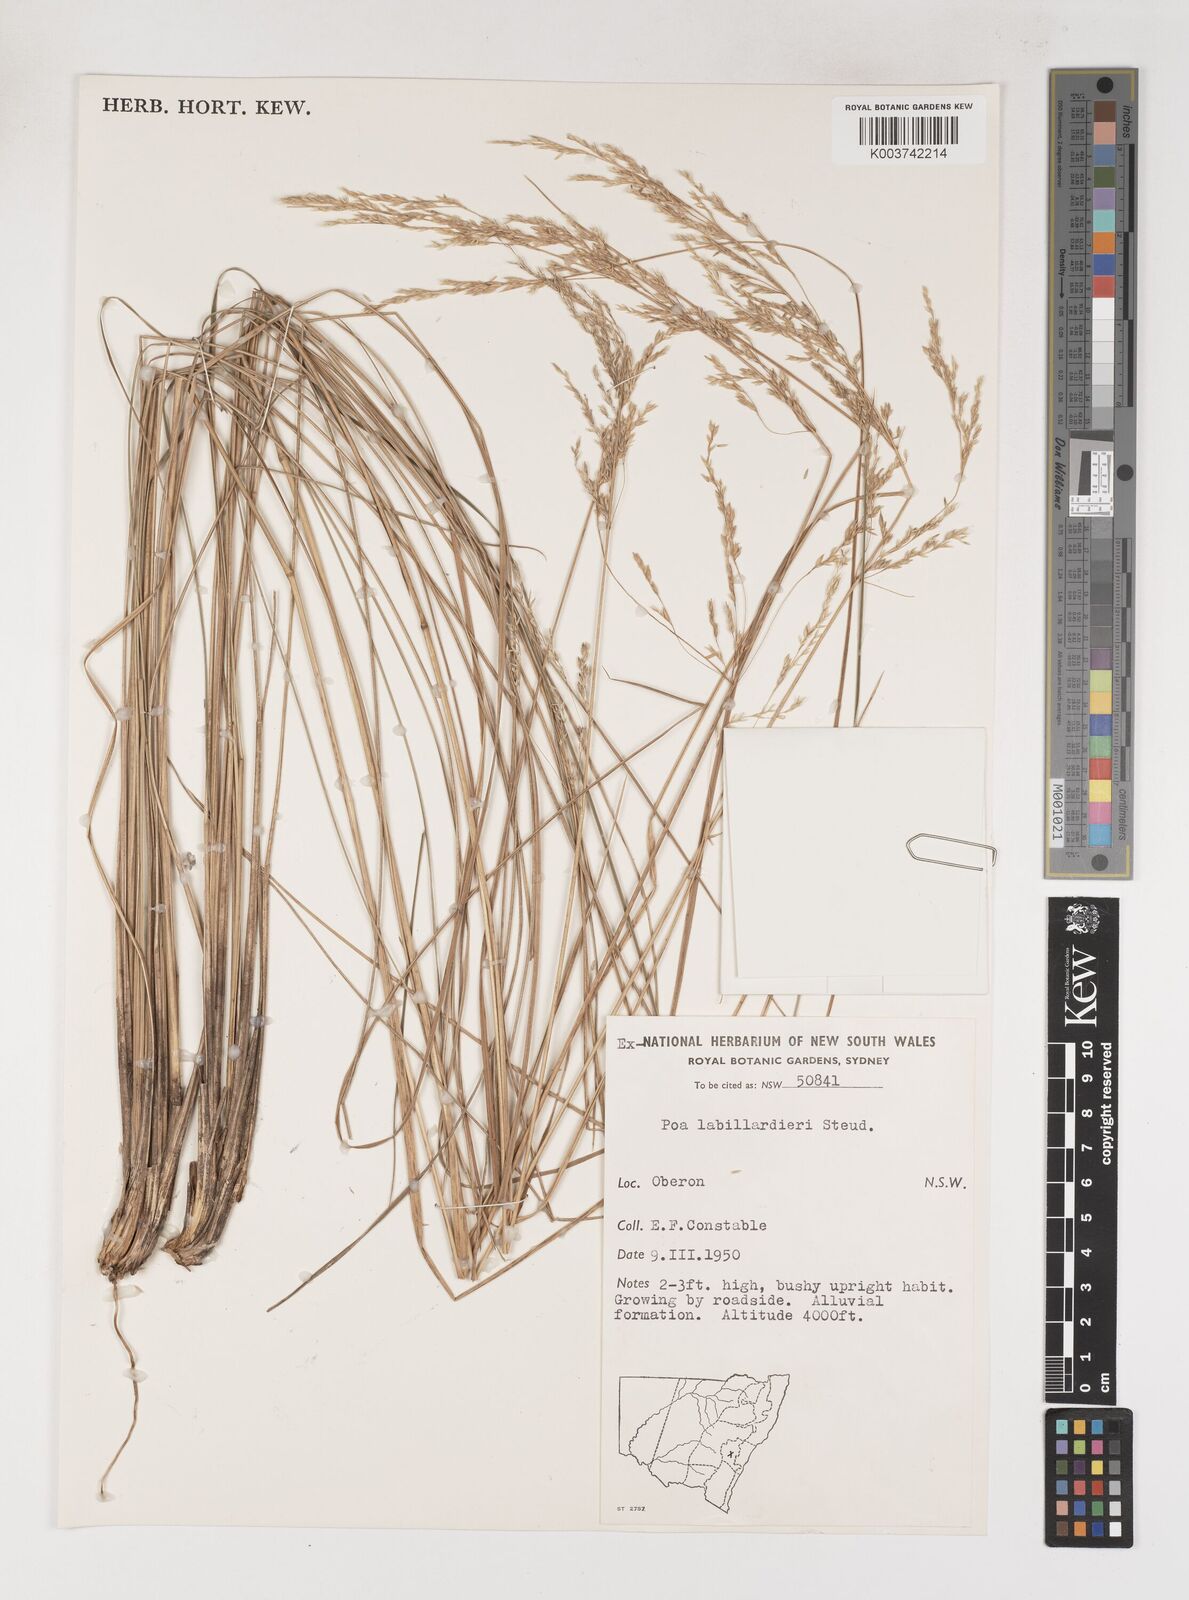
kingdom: Plantae
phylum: Tracheophyta
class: Liliopsida
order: Poales
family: Poaceae
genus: Poa
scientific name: Poa labillardierei
